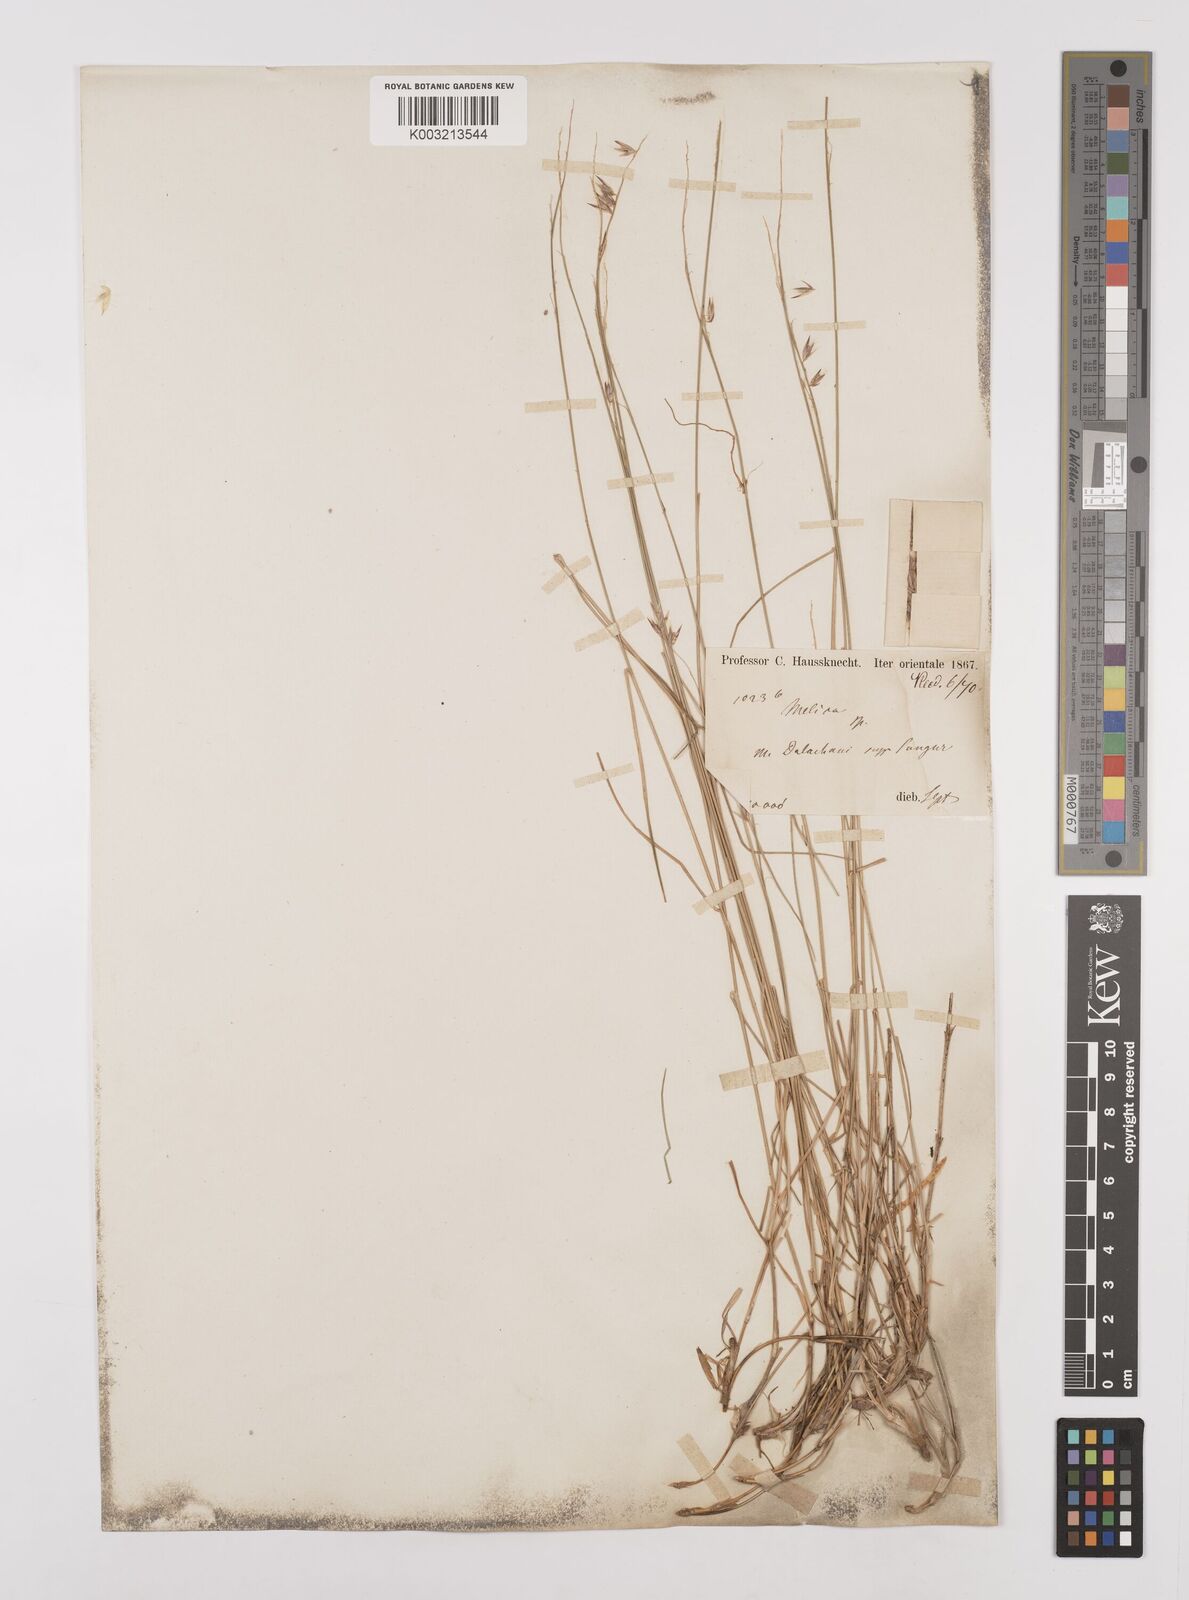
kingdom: Plantae
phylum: Tracheophyta
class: Liliopsida
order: Poales
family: Poaceae
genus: Melica
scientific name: Melica persica
